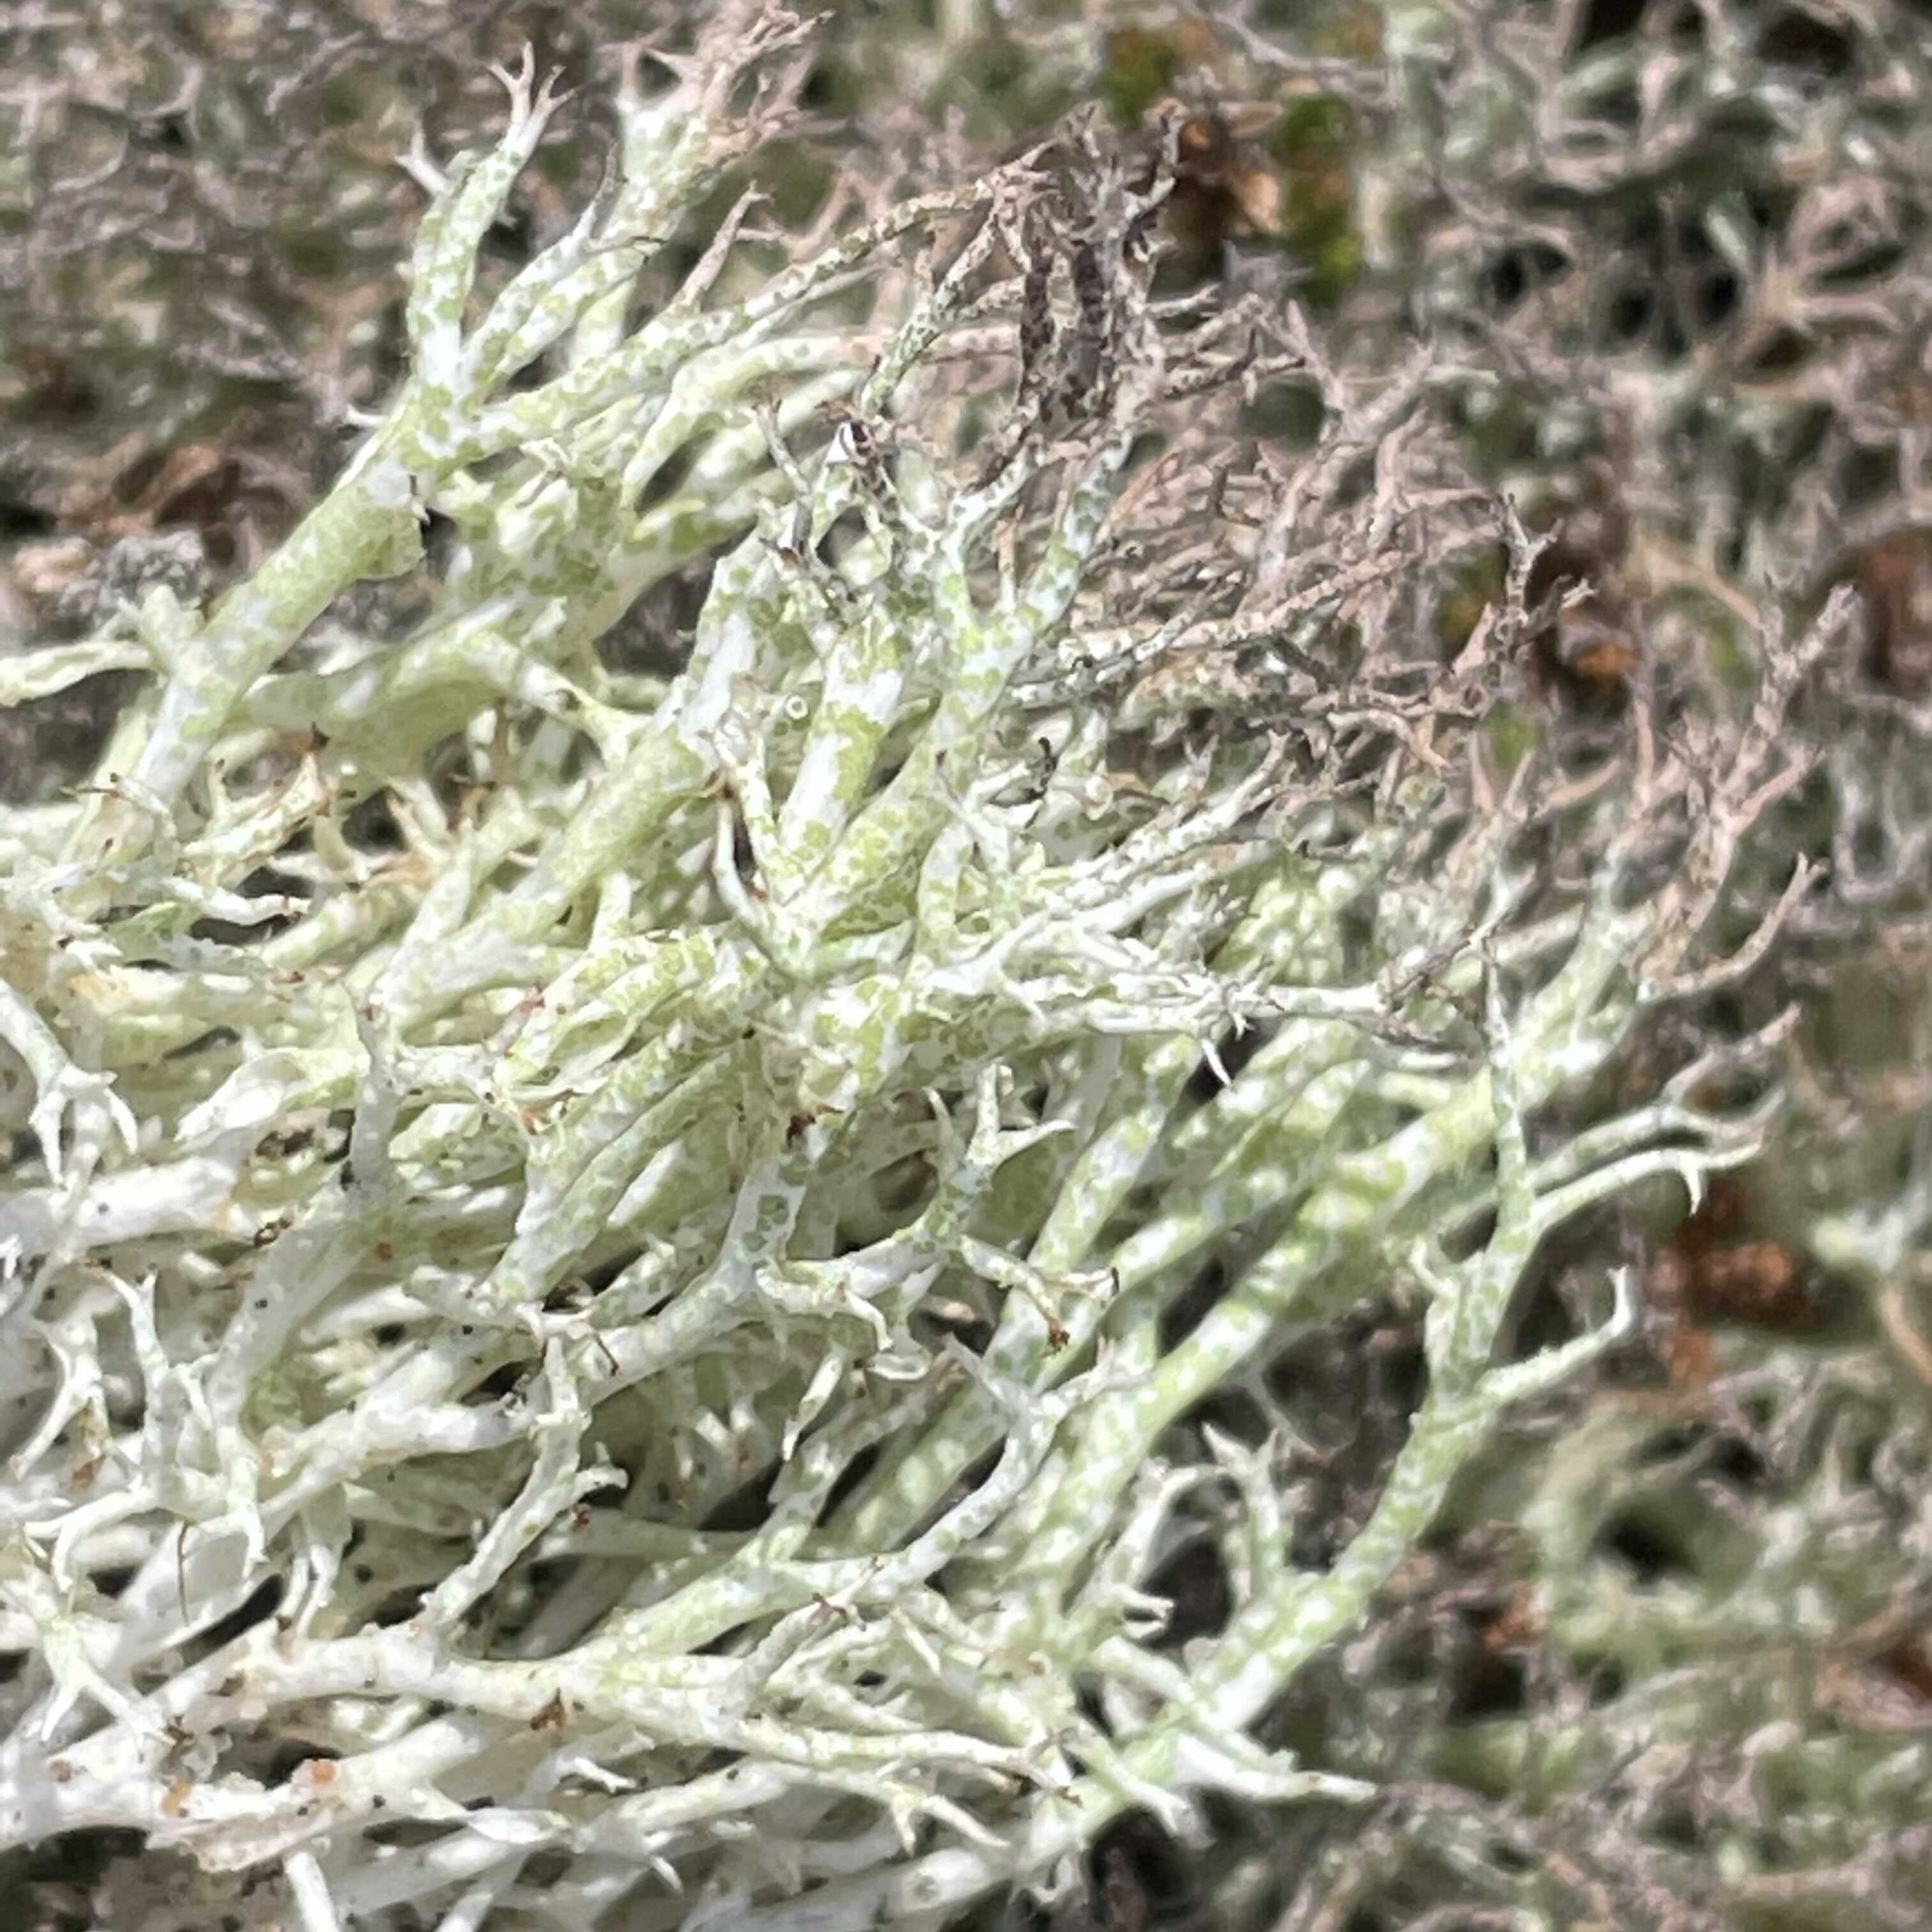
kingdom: Fungi
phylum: Ascomycota
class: Lecanoromycetes
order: Lecanorales
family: Cladoniaceae
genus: Cladonia
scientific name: Cladonia rangiformis
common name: spættet bægerlav
